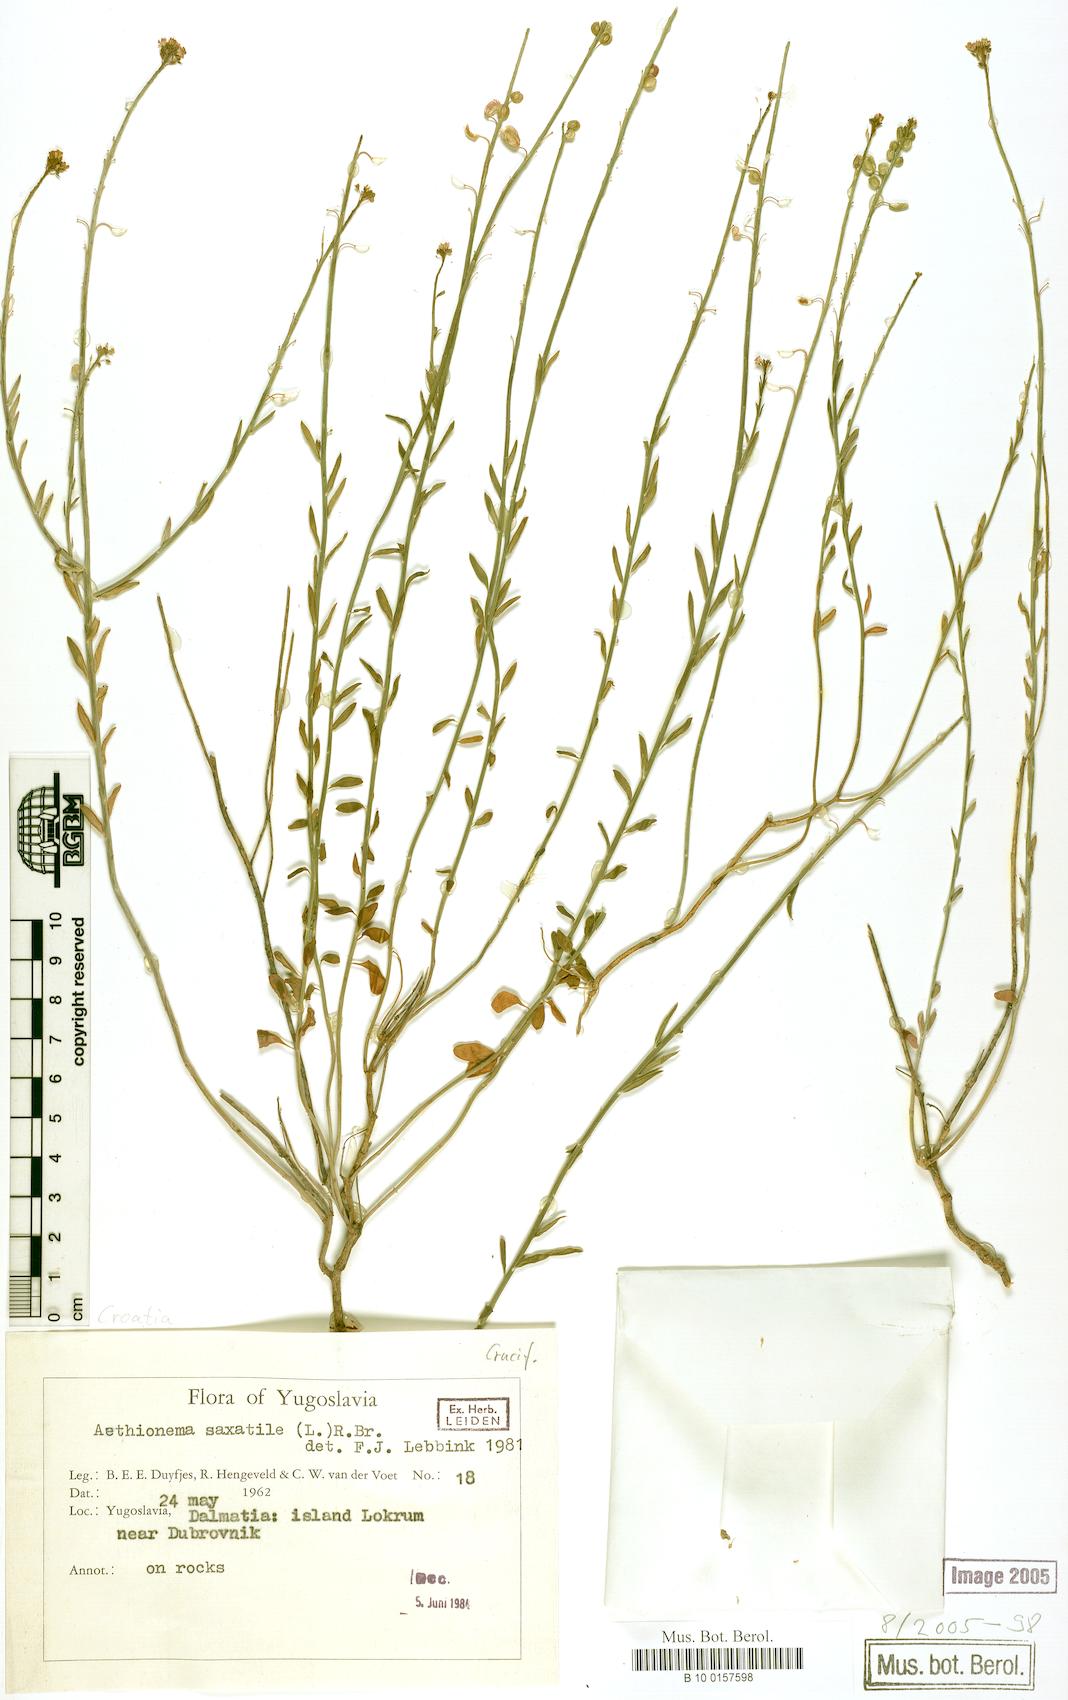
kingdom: Plantae
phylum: Tracheophyta
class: Magnoliopsida
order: Brassicales
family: Brassicaceae
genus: Aethionema
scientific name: Aethionema saxatile
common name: Burnt candytuft
